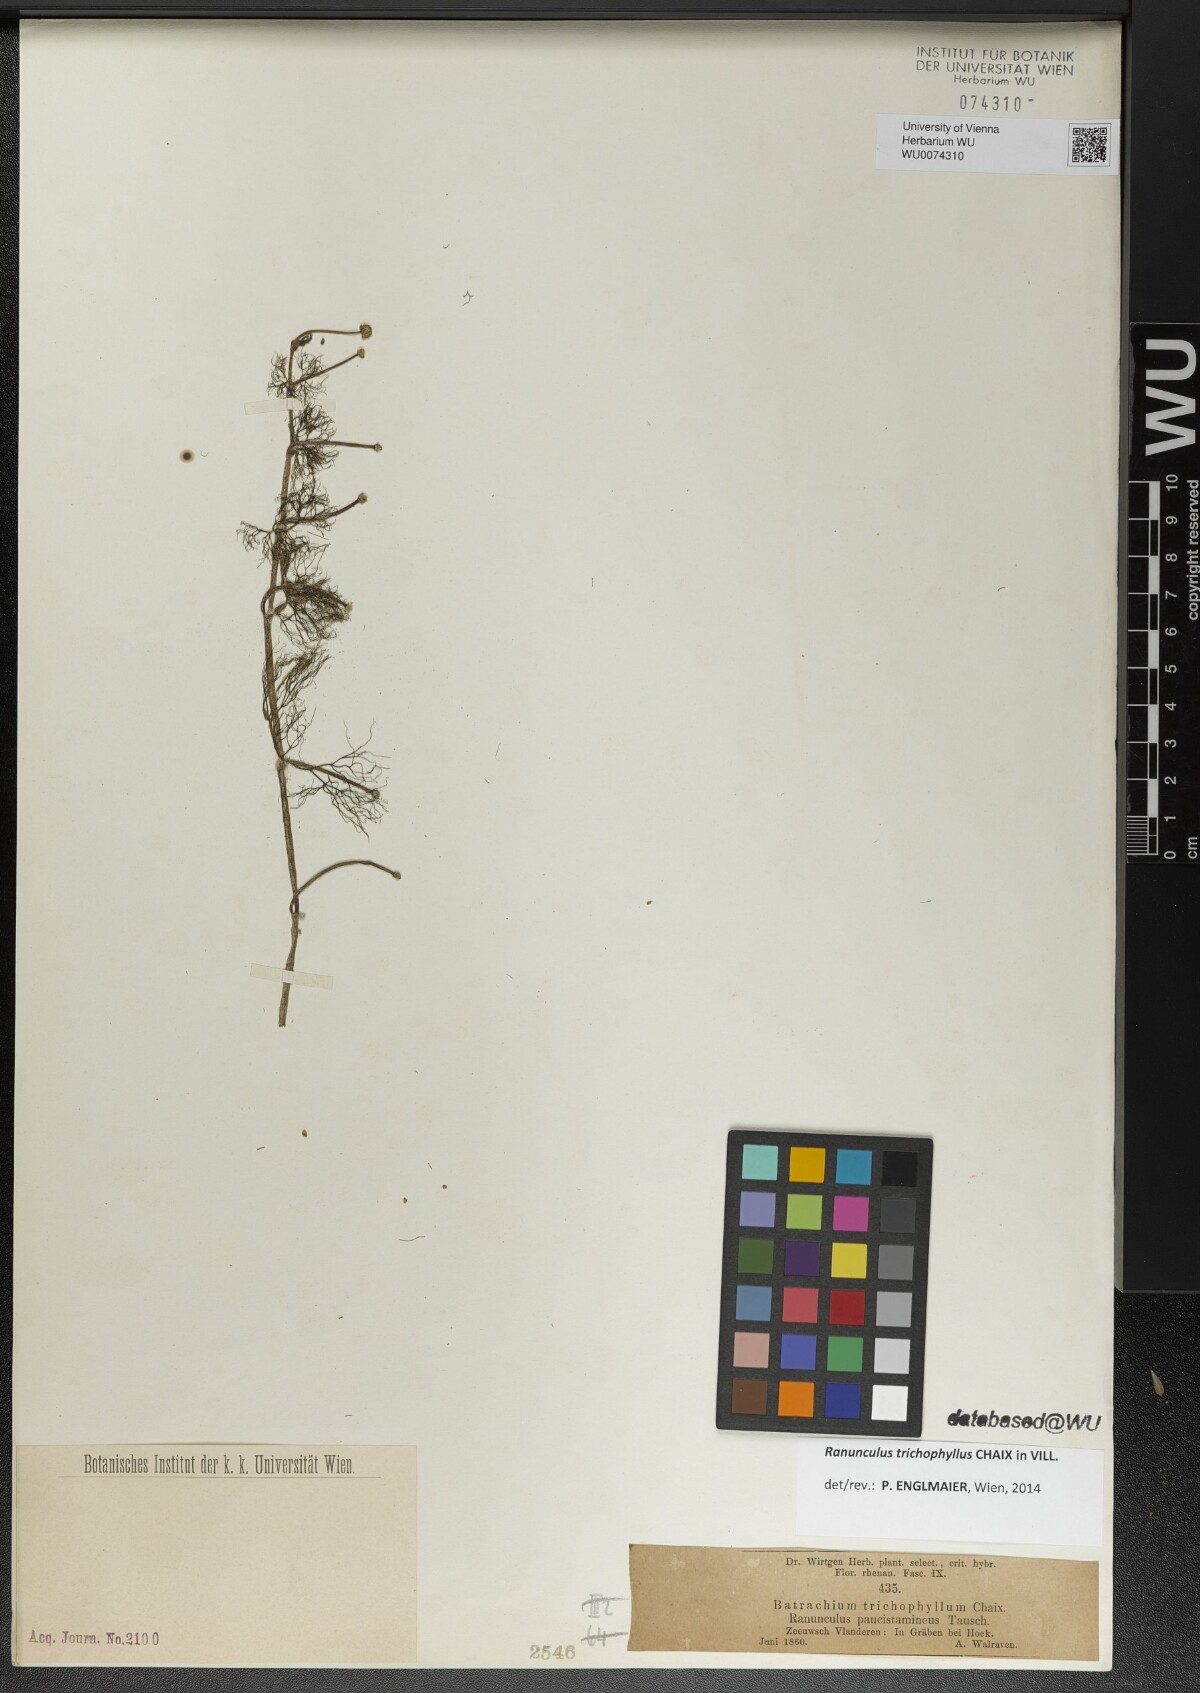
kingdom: Plantae
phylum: Tracheophyta
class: Magnoliopsida
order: Ranunculales
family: Ranunculaceae
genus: Ranunculus
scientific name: Ranunculus trichophyllus
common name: Thread-leaved water-crowfoot
